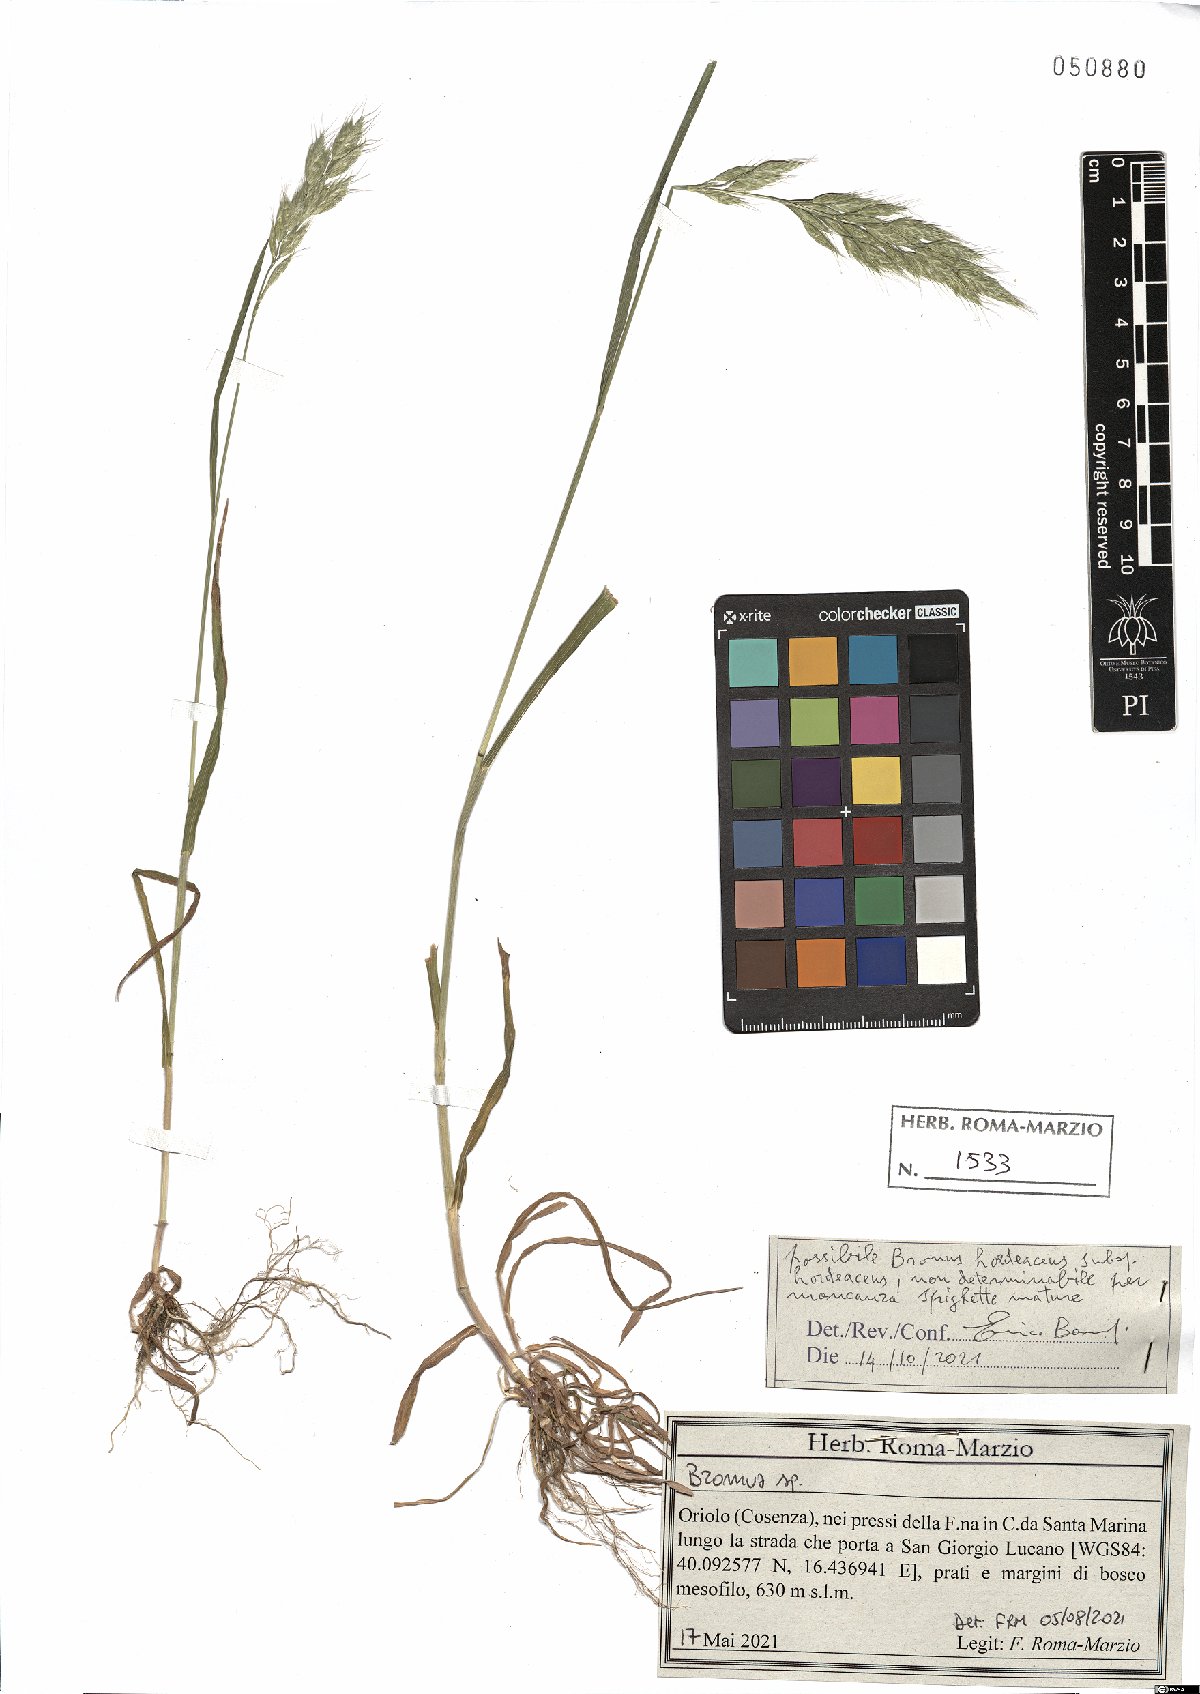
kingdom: Plantae
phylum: Tracheophyta
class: Liliopsida
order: Poales
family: Poaceae
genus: Bromus
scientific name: Bromus hordeaceus
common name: Soft brome
